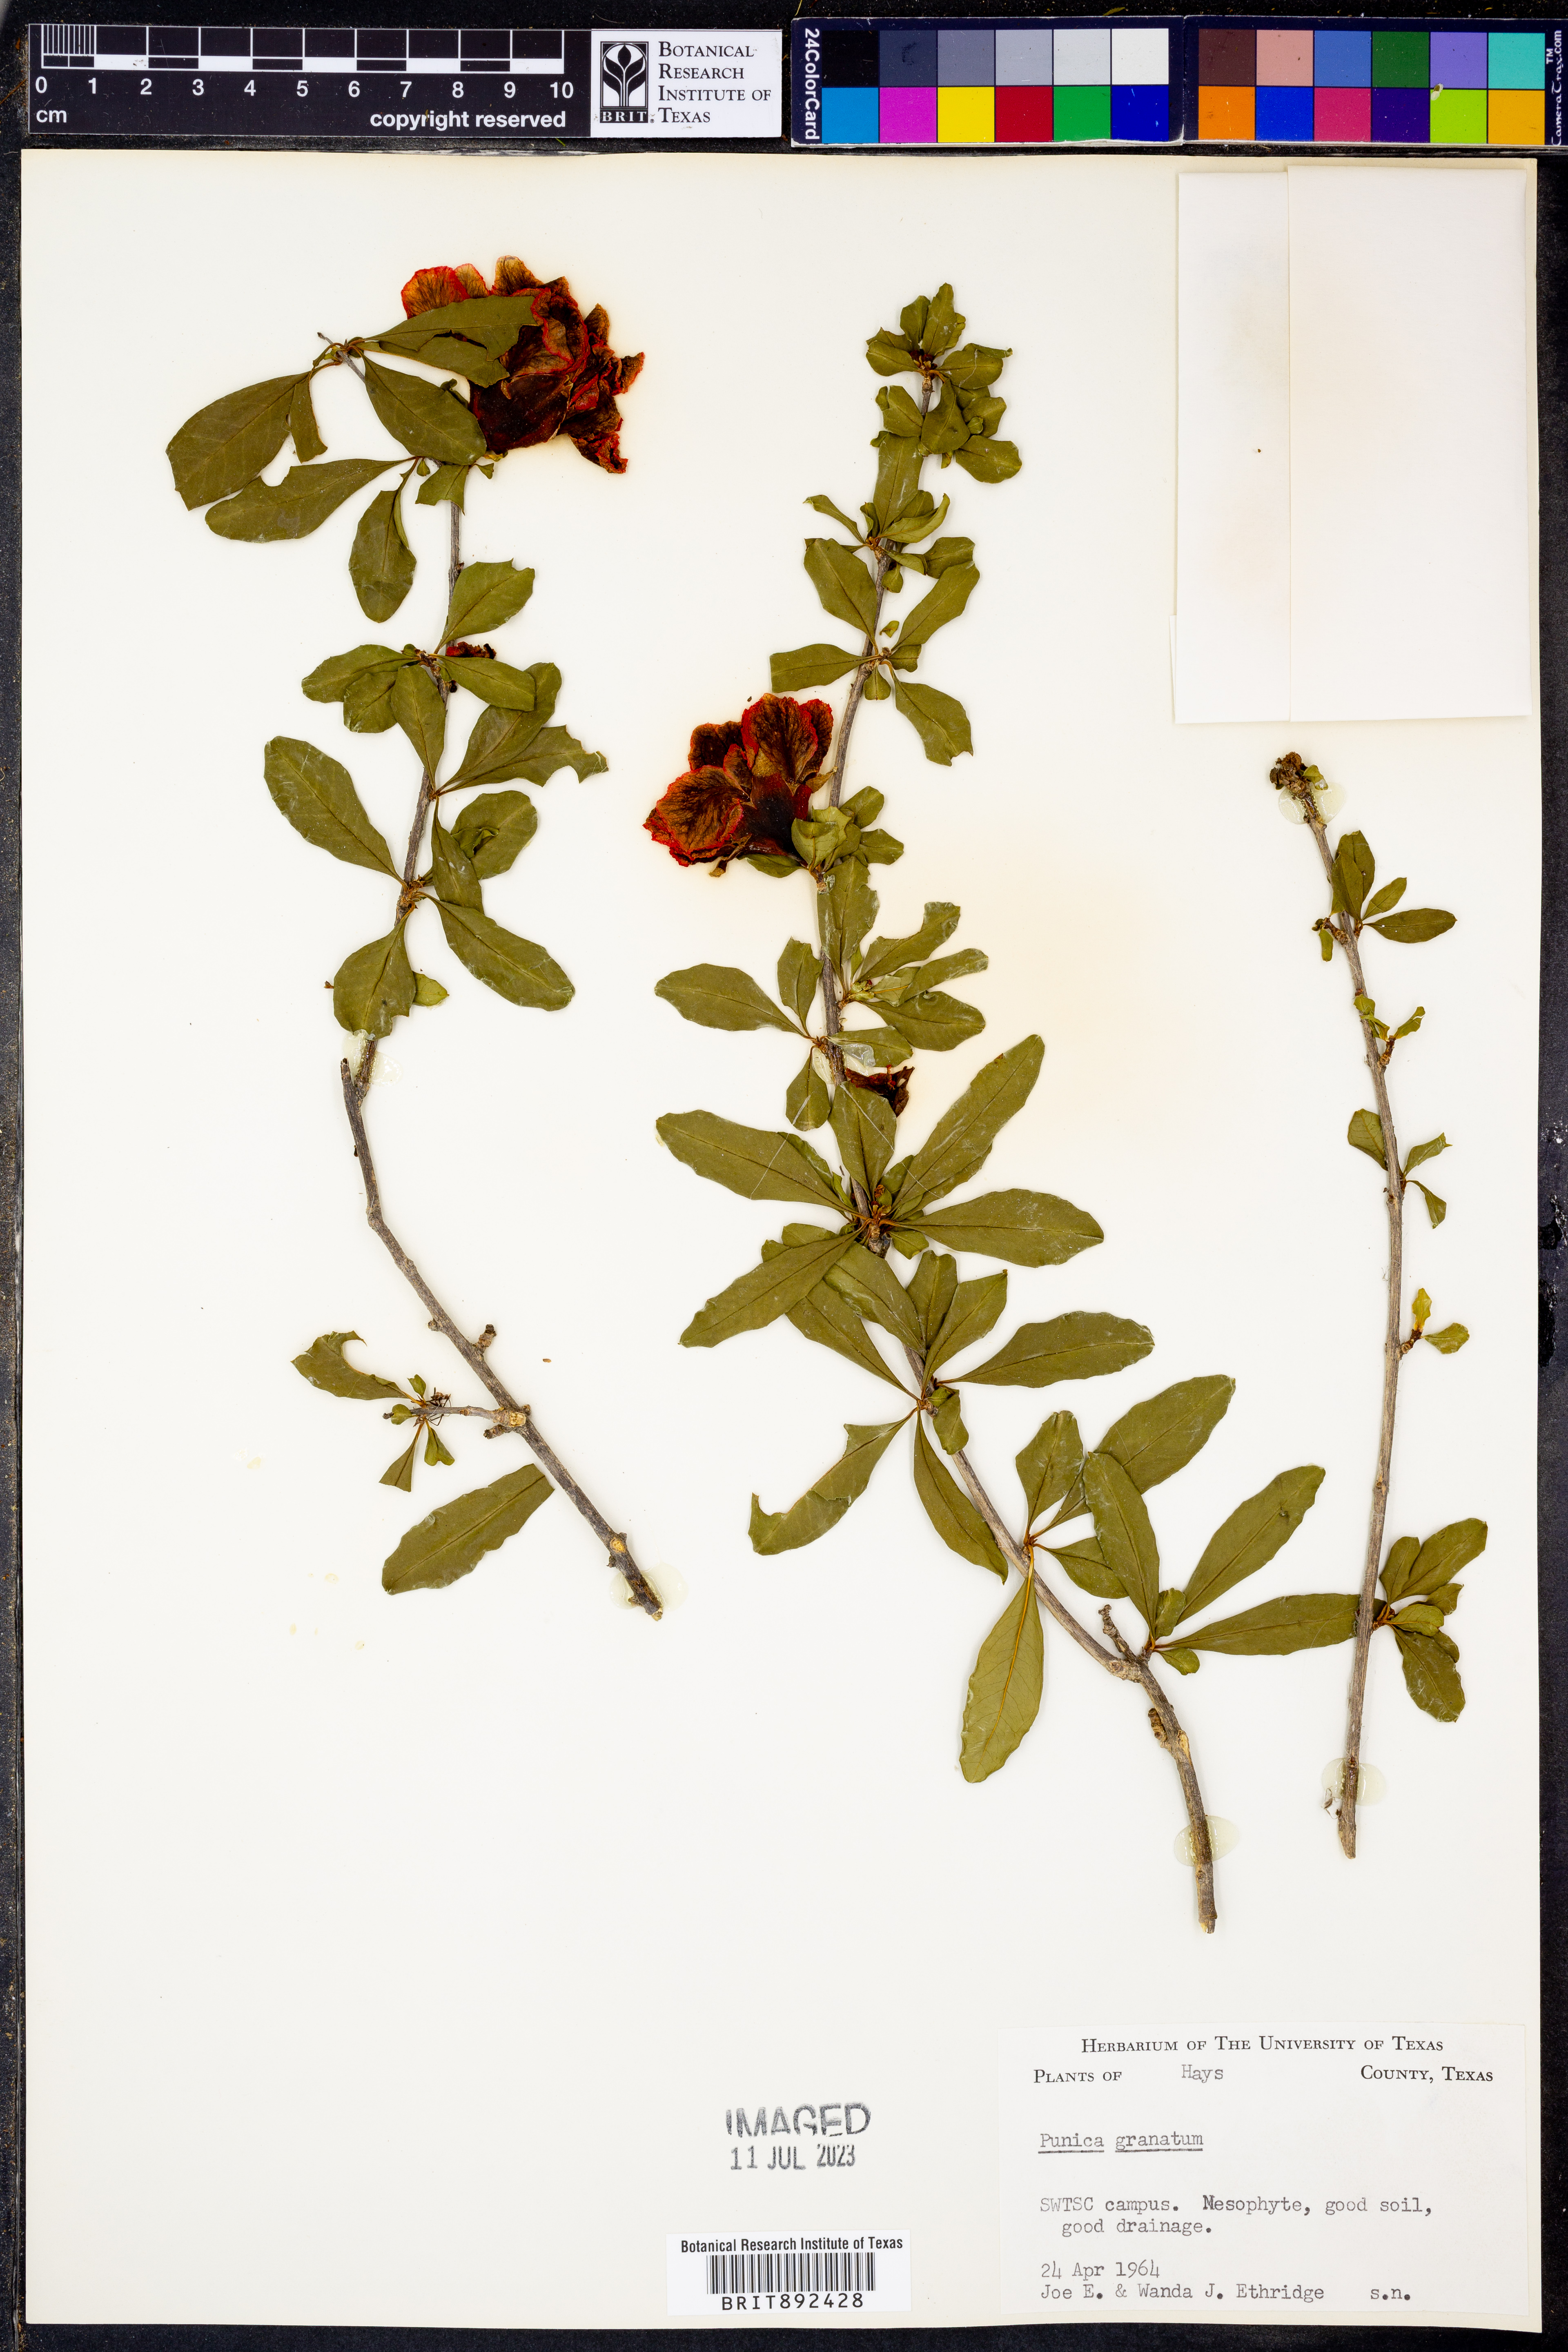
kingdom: Plantae
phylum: Tracheophyta
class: Magnoliopsida
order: Myrtales
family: Lythraceae
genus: Punica
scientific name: Punica granatum
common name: Pomegranate
